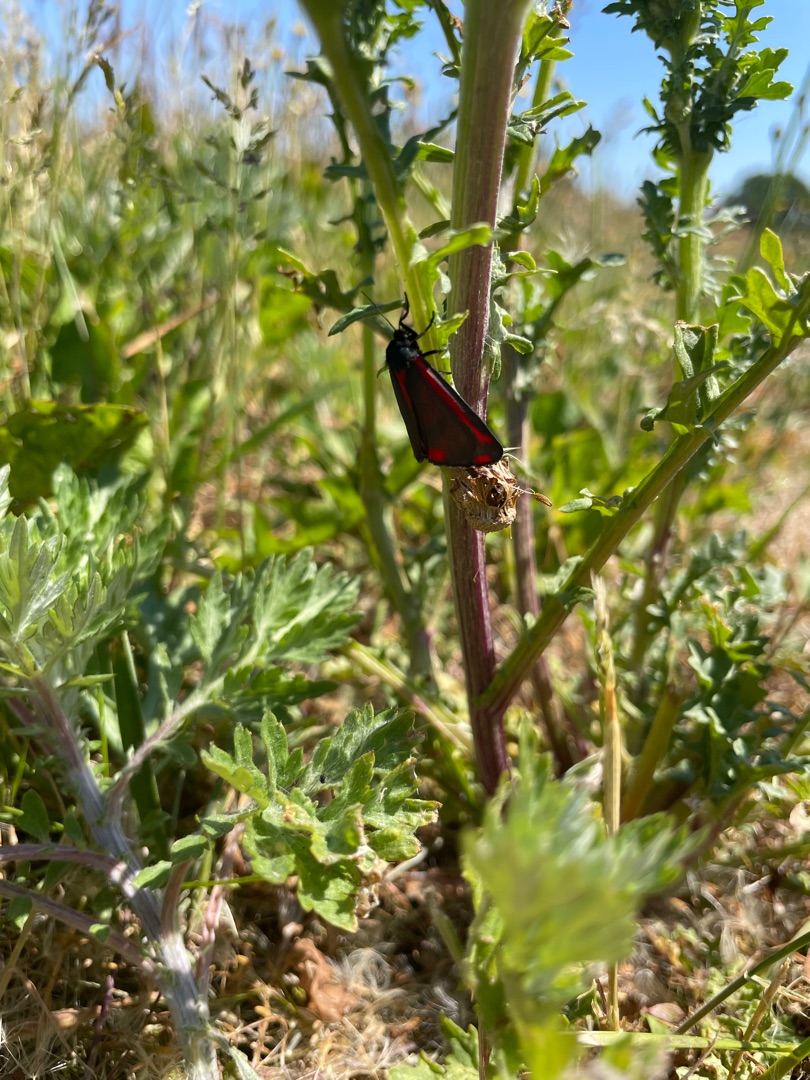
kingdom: Animalia
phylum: Arthropoda
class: Insecta
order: Lepidoptera
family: Erebidae
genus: Tyria
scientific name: Tyria jacobaeae
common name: Blodplet
